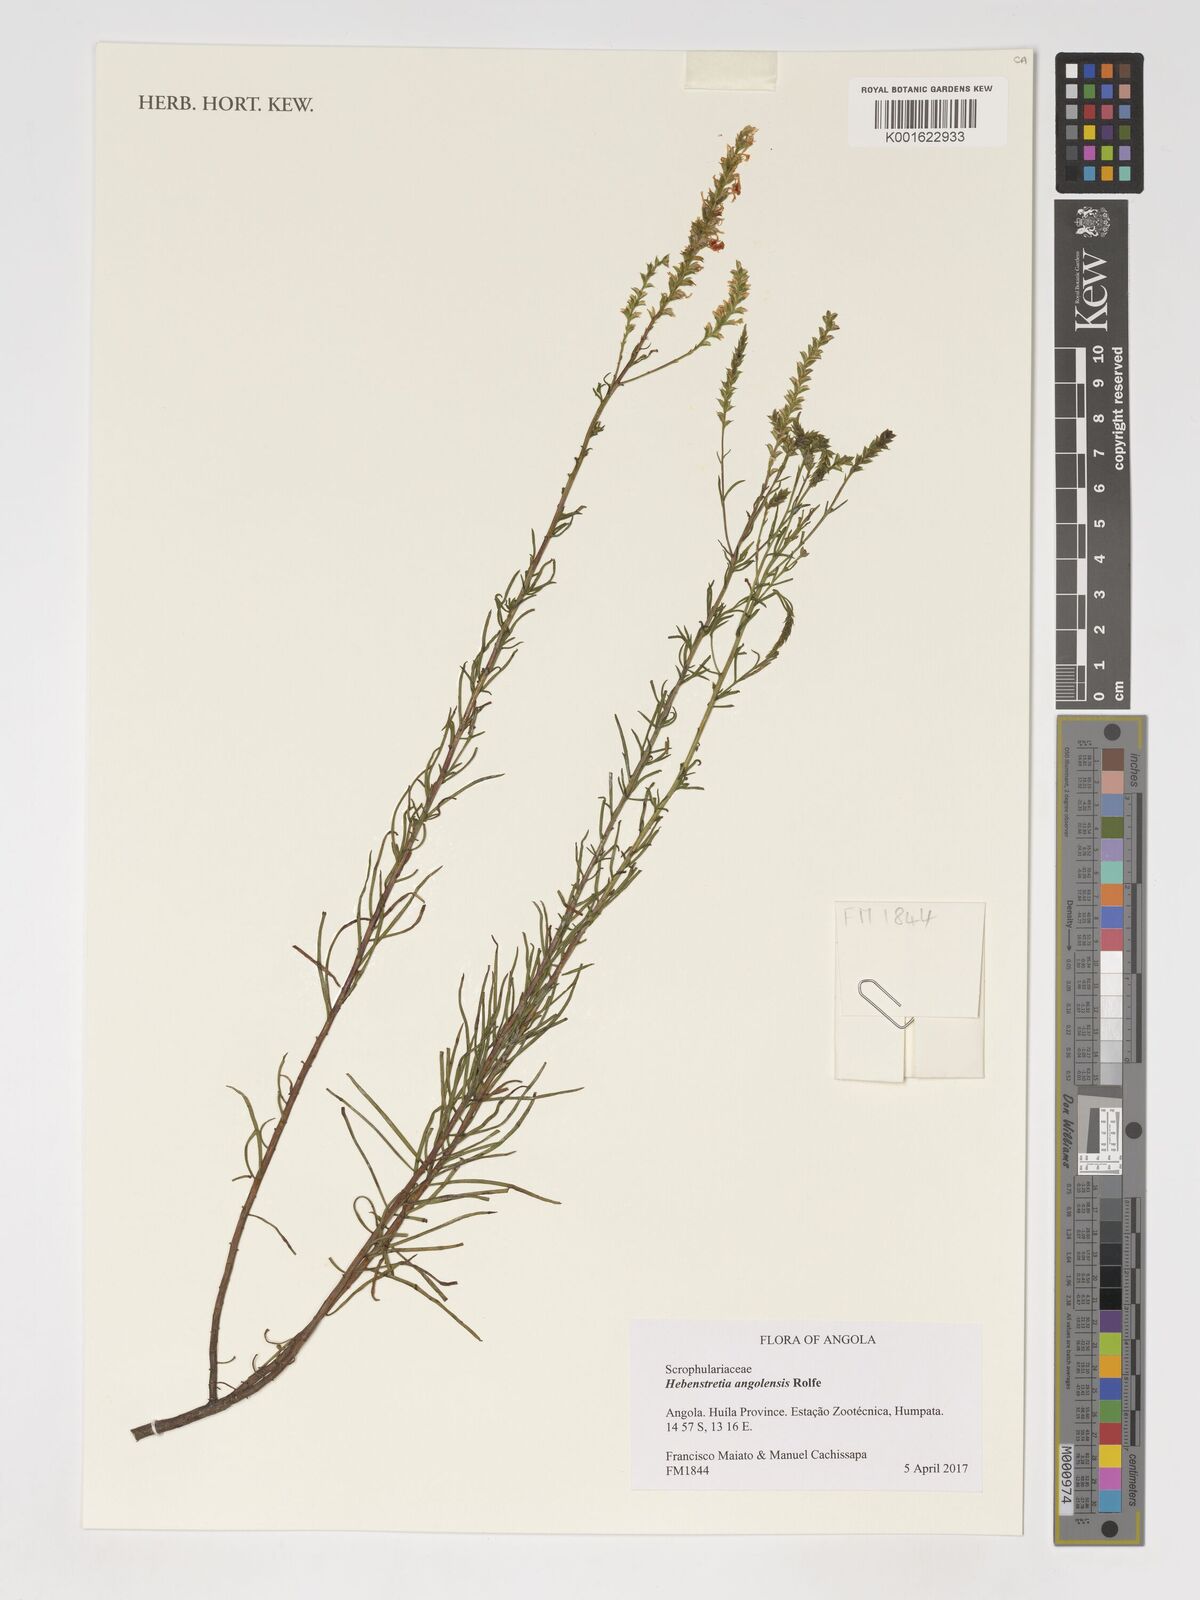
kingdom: Plantae
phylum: Tracheophyta
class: Magnoliopsida
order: Lamiales
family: Scrophulariaceae
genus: Hebenstretia
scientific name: Hebenstretia angolensis
